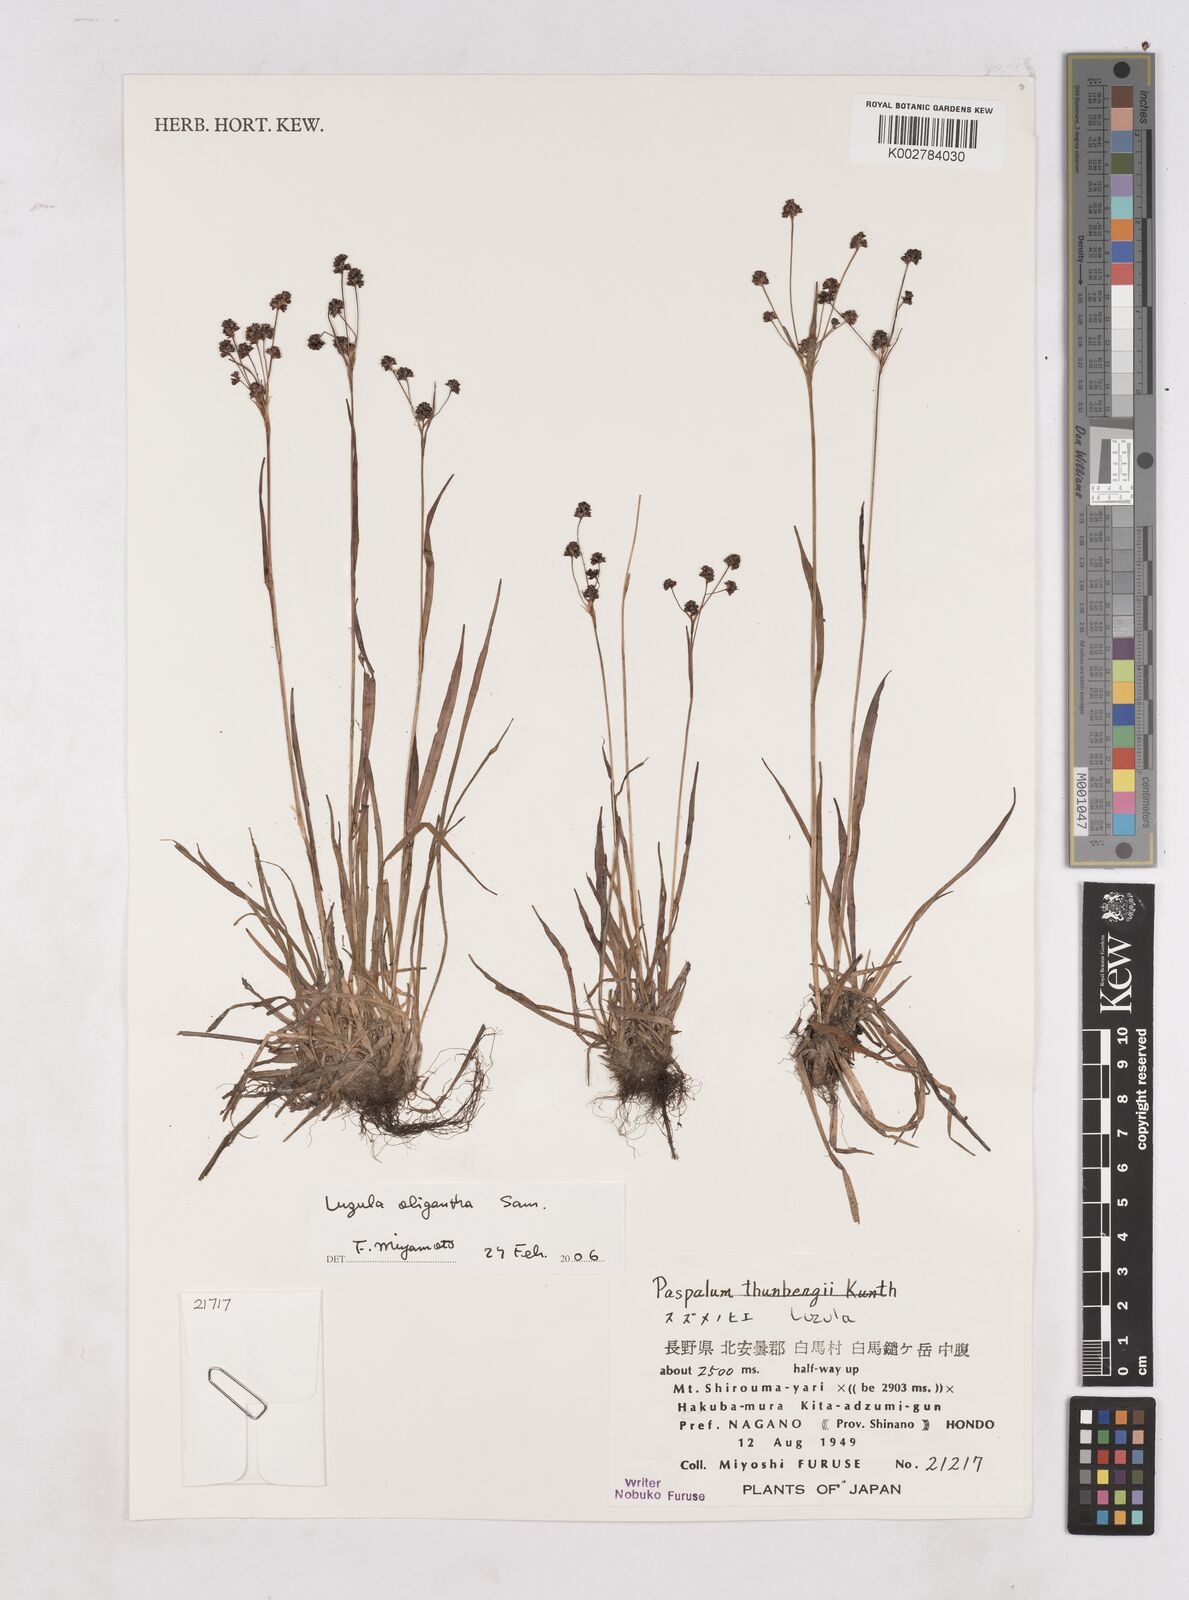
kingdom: Plantae
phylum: Tracheophyta
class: Liliopsida
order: Poales
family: Juncaceae
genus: Luzula
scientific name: Luzula oligantha
